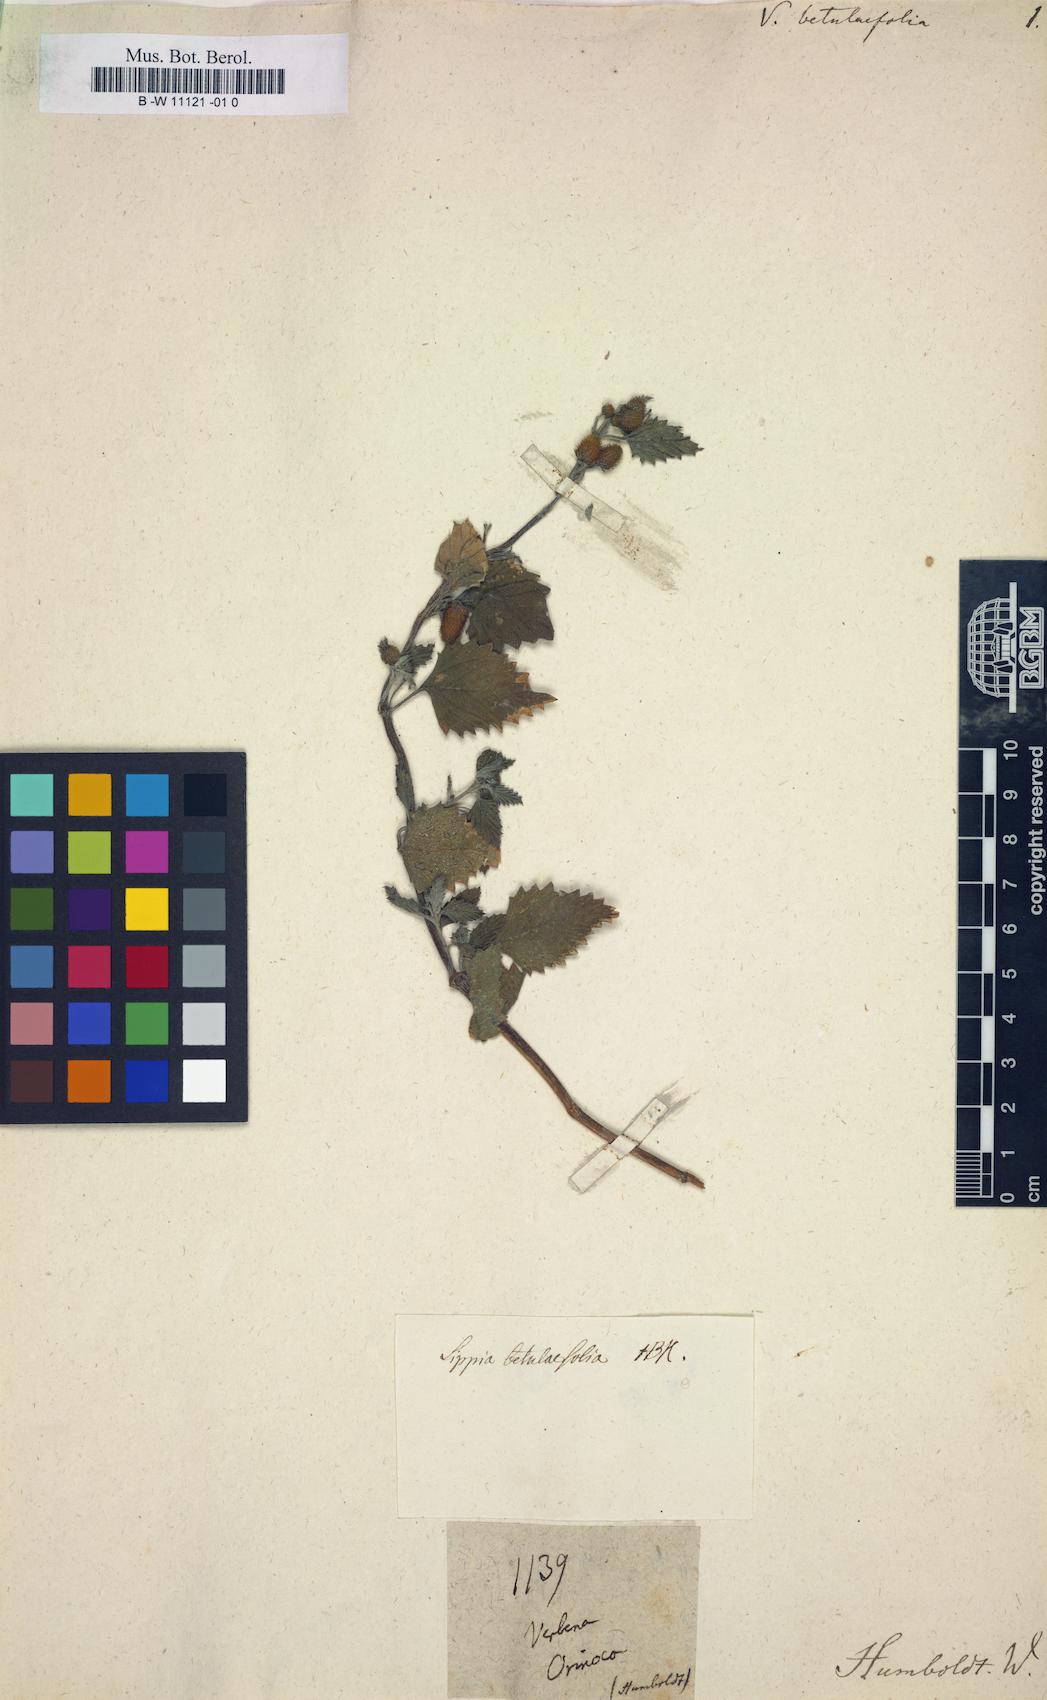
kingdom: Plantae
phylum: Tracheophyta
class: Magnoliopsida
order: Lamiales
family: Verbenaceae
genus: Verbena
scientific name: Verbena
